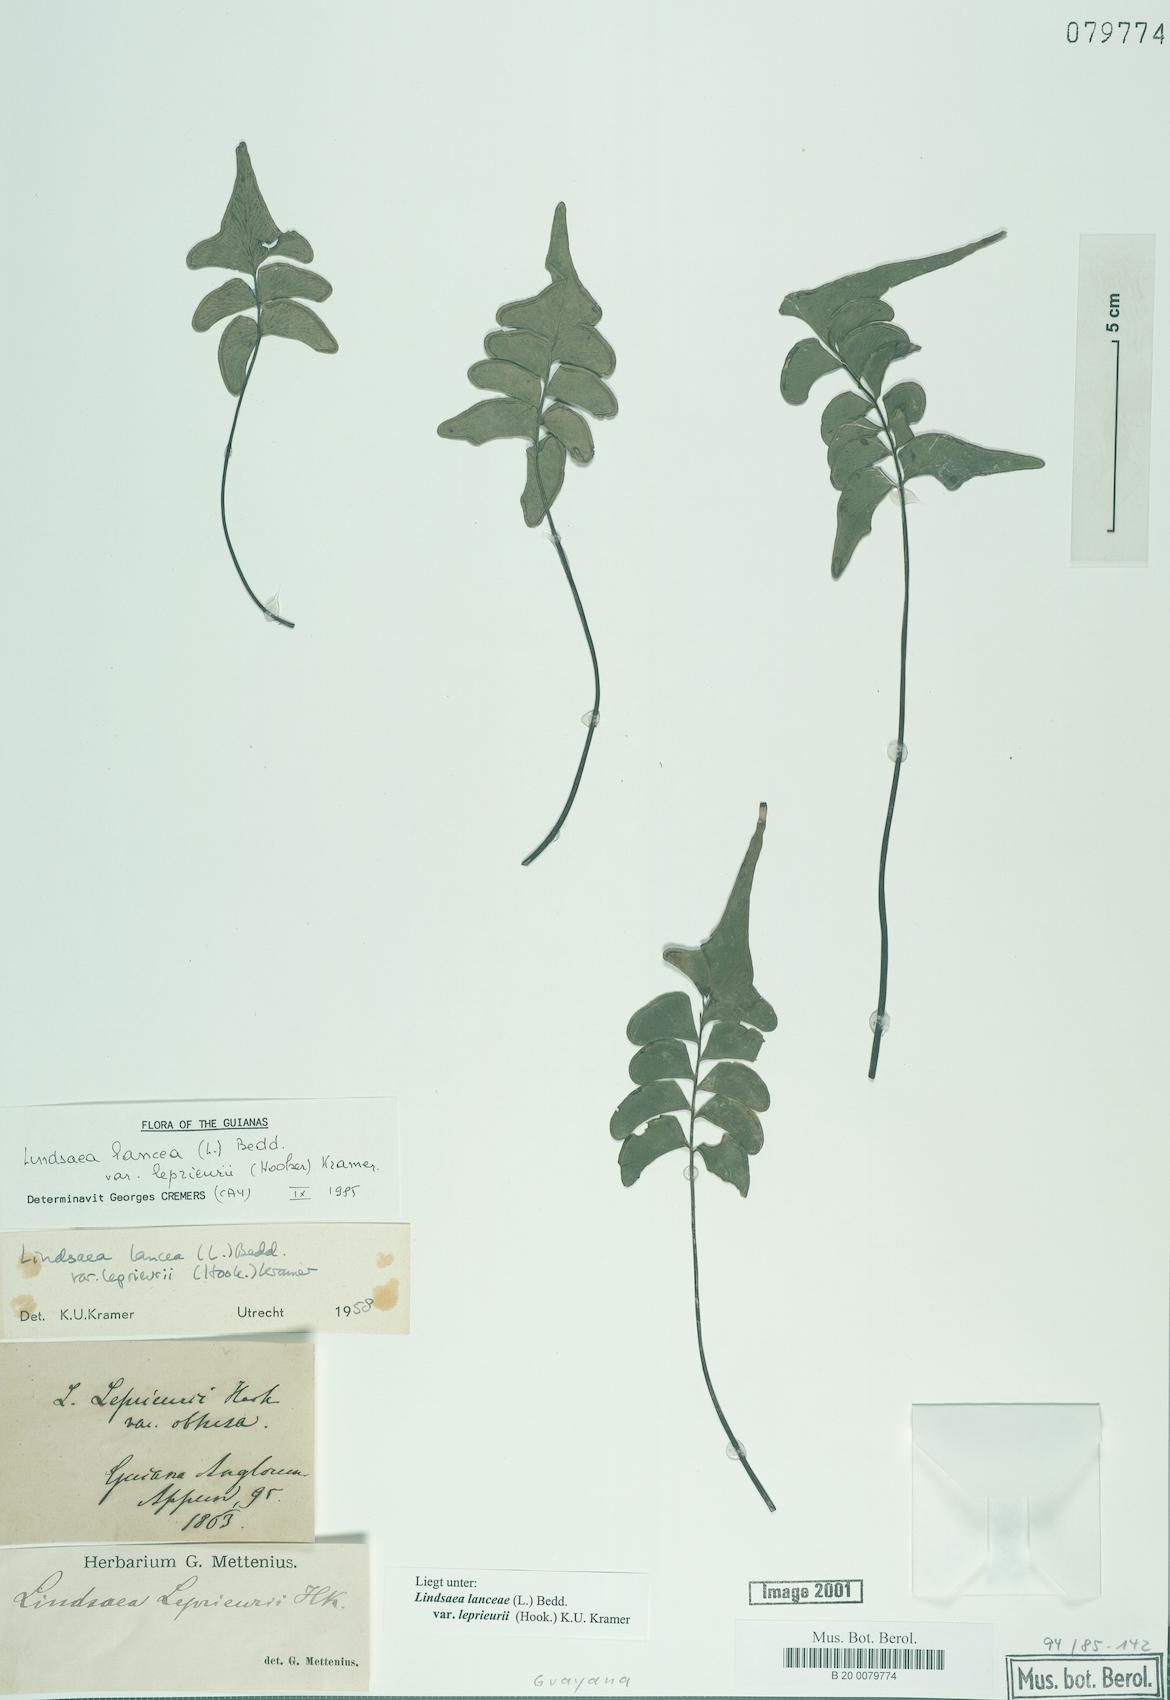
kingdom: Plantae
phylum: Tracheophyta
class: Polypodiopsida
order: Polypodiales
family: Lindsaeaceae
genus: Lindsaea
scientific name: Lindsaea lancea
